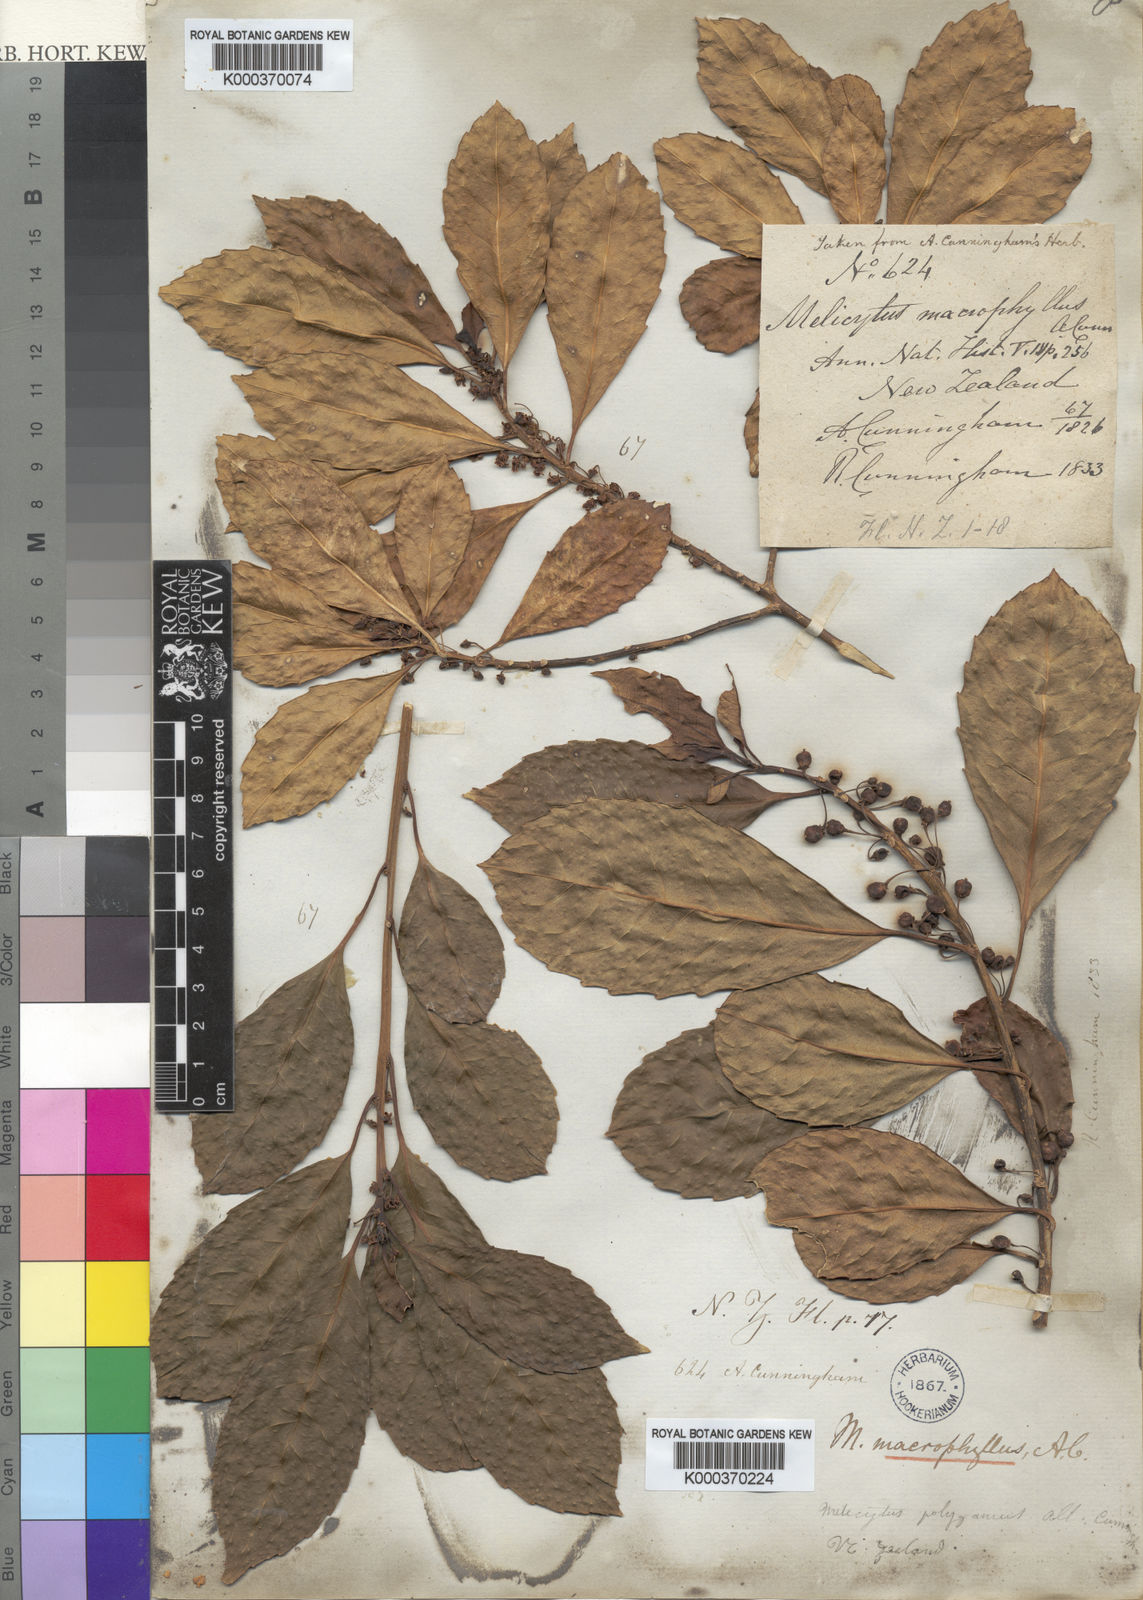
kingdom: Plantae
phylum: Tracheophyta
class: Magnoliopsida
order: Malpighiales
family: Violaceae
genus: Melicytus
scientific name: Melicytus macrophyllus
